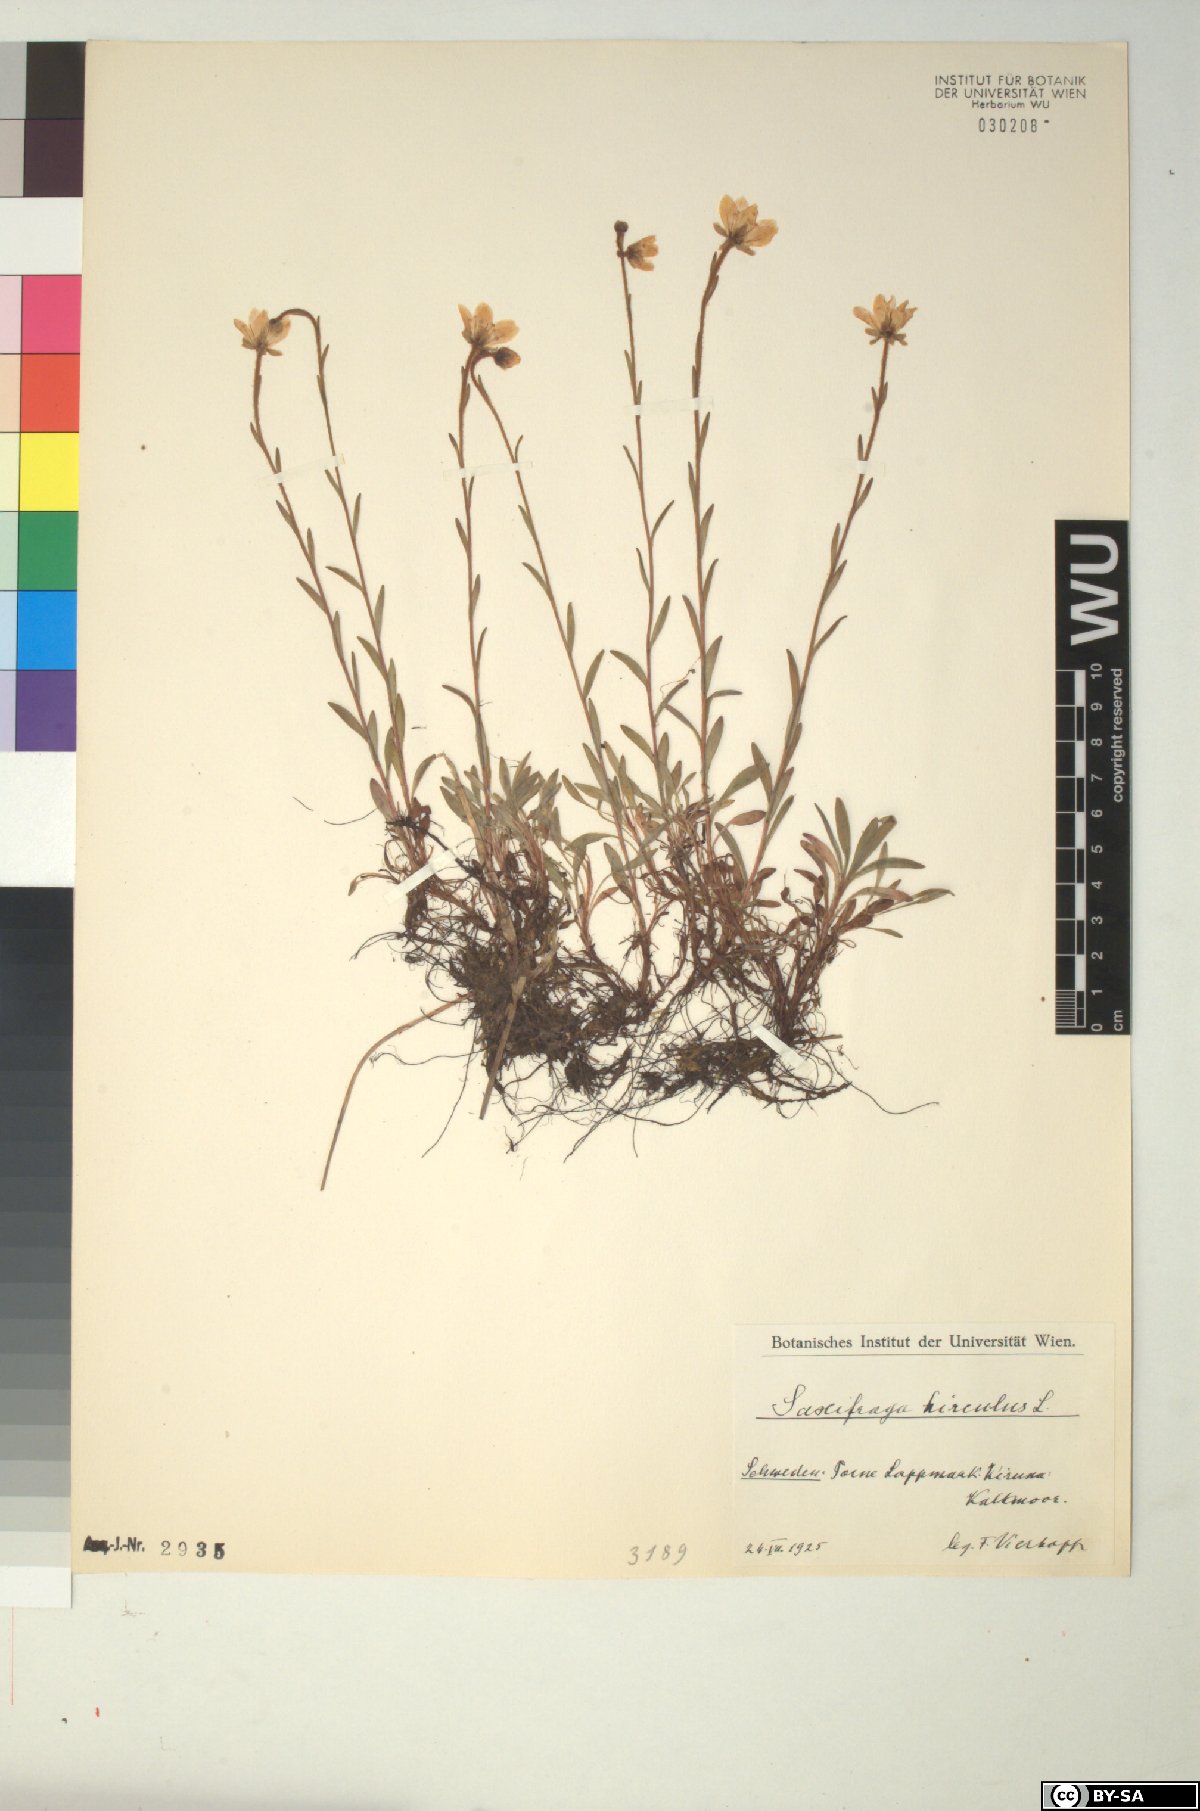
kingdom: Plantae
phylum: Tracheophyta
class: Magnoliopsida
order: Saxifragales
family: Saxifragaceae
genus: Saxifraga
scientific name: Saxifraga hirculus
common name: Yellow marsh saxifrage
